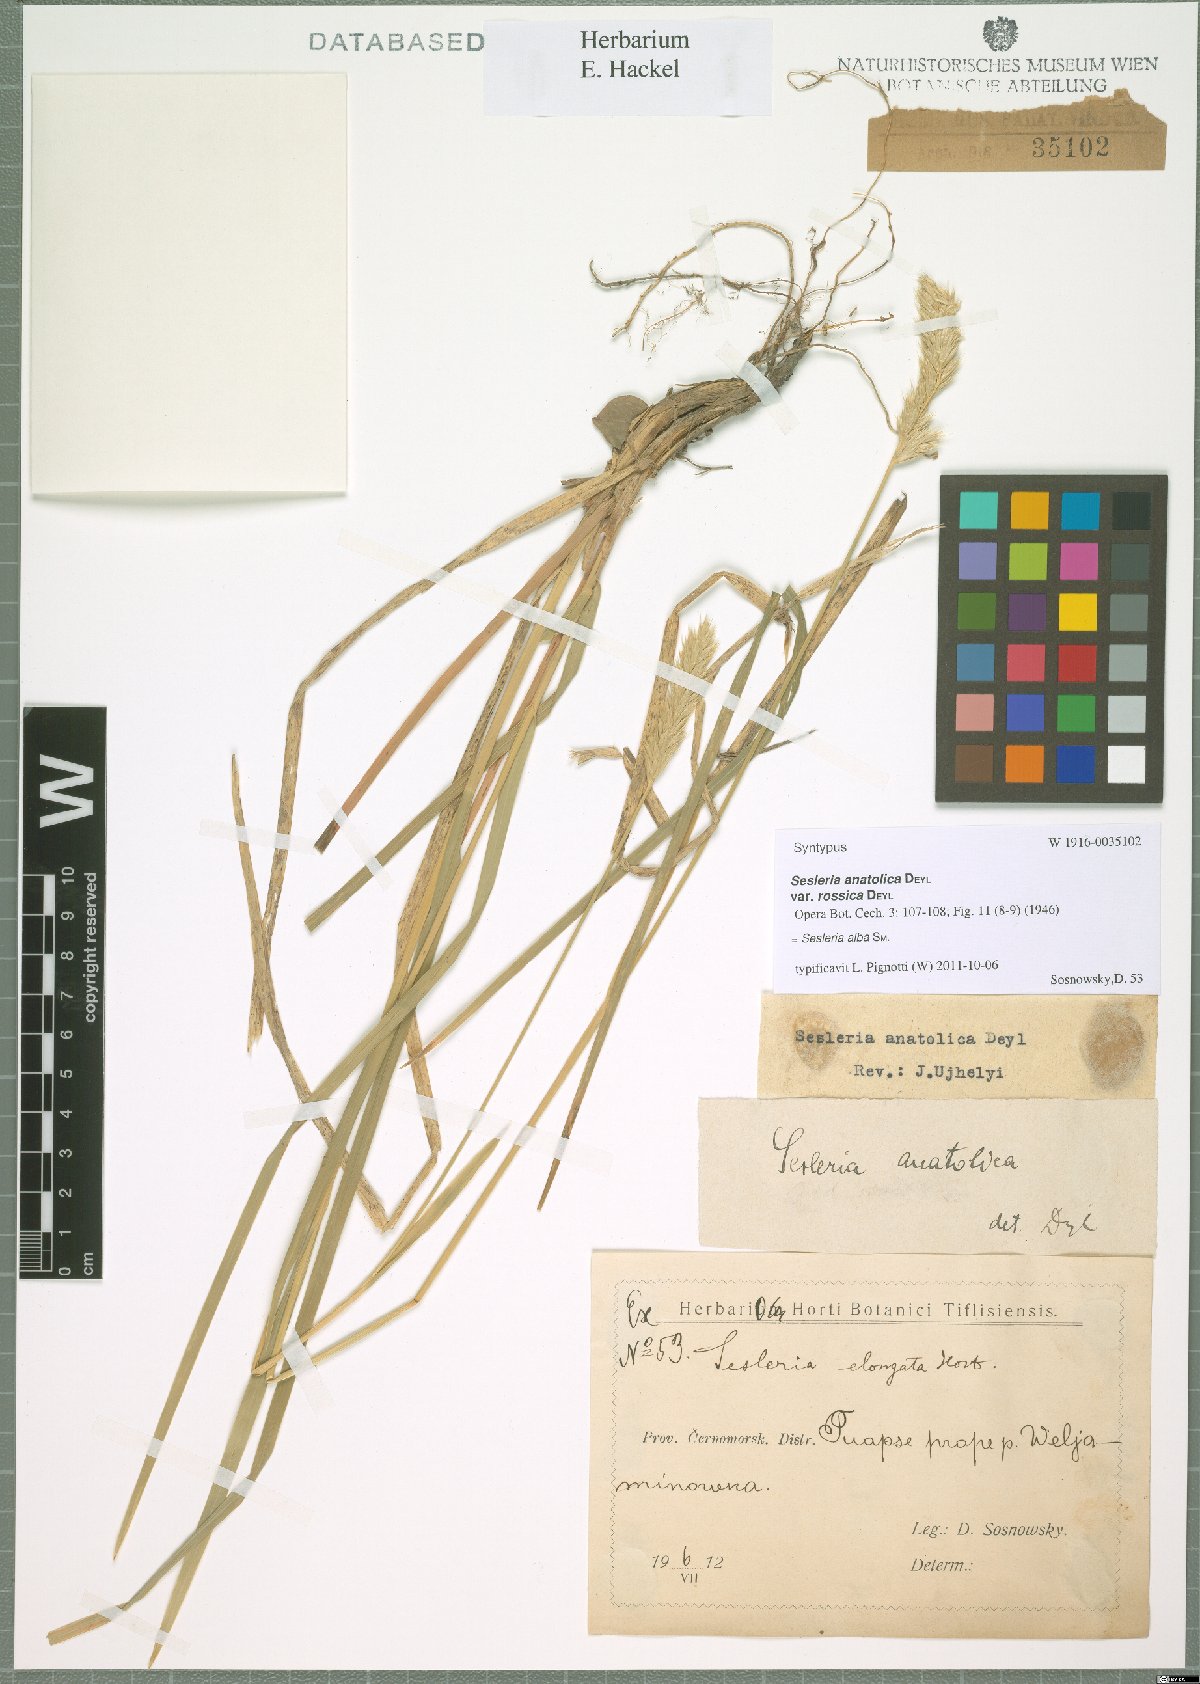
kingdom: Plantae
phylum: Tracheophyta
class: Liliopsida
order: Poales
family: Poaceae
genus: Sesleria
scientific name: Sesleria alba
